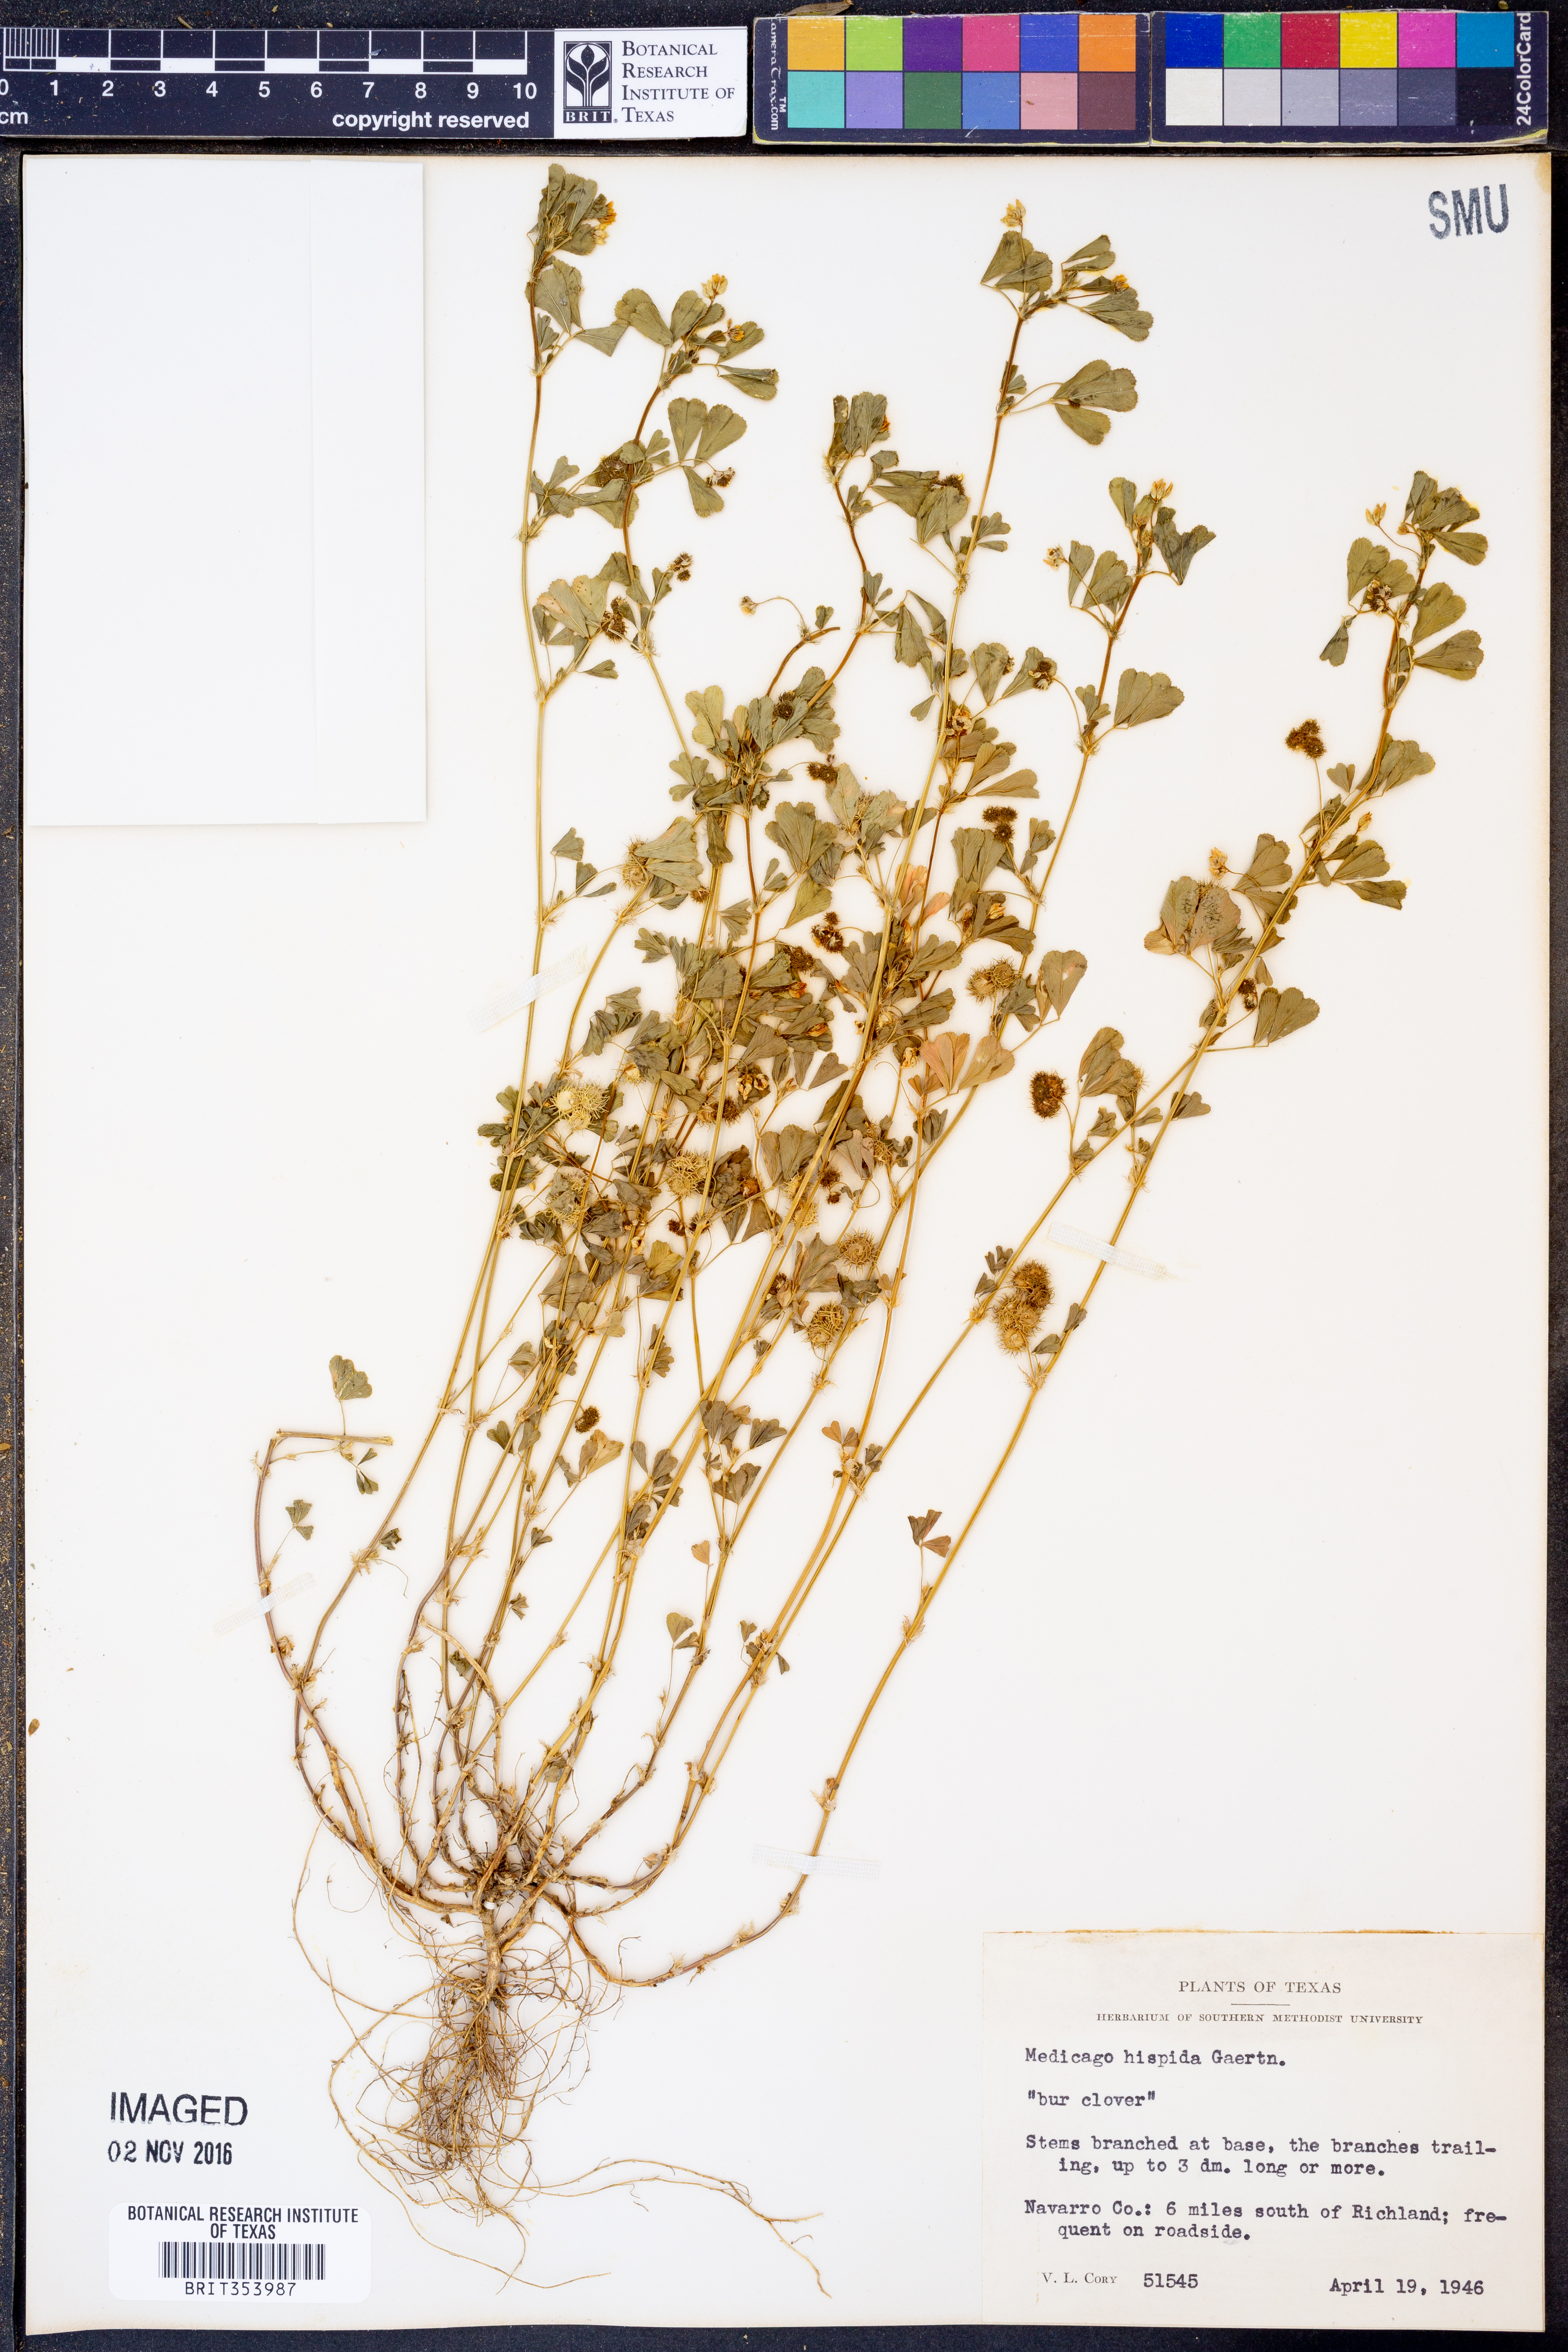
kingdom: Plantae
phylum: Tracheophyta
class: Magnoliopsida
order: Fabales
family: Fabaceae
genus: Medicago
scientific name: Medicago polymorpha
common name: Burclover
